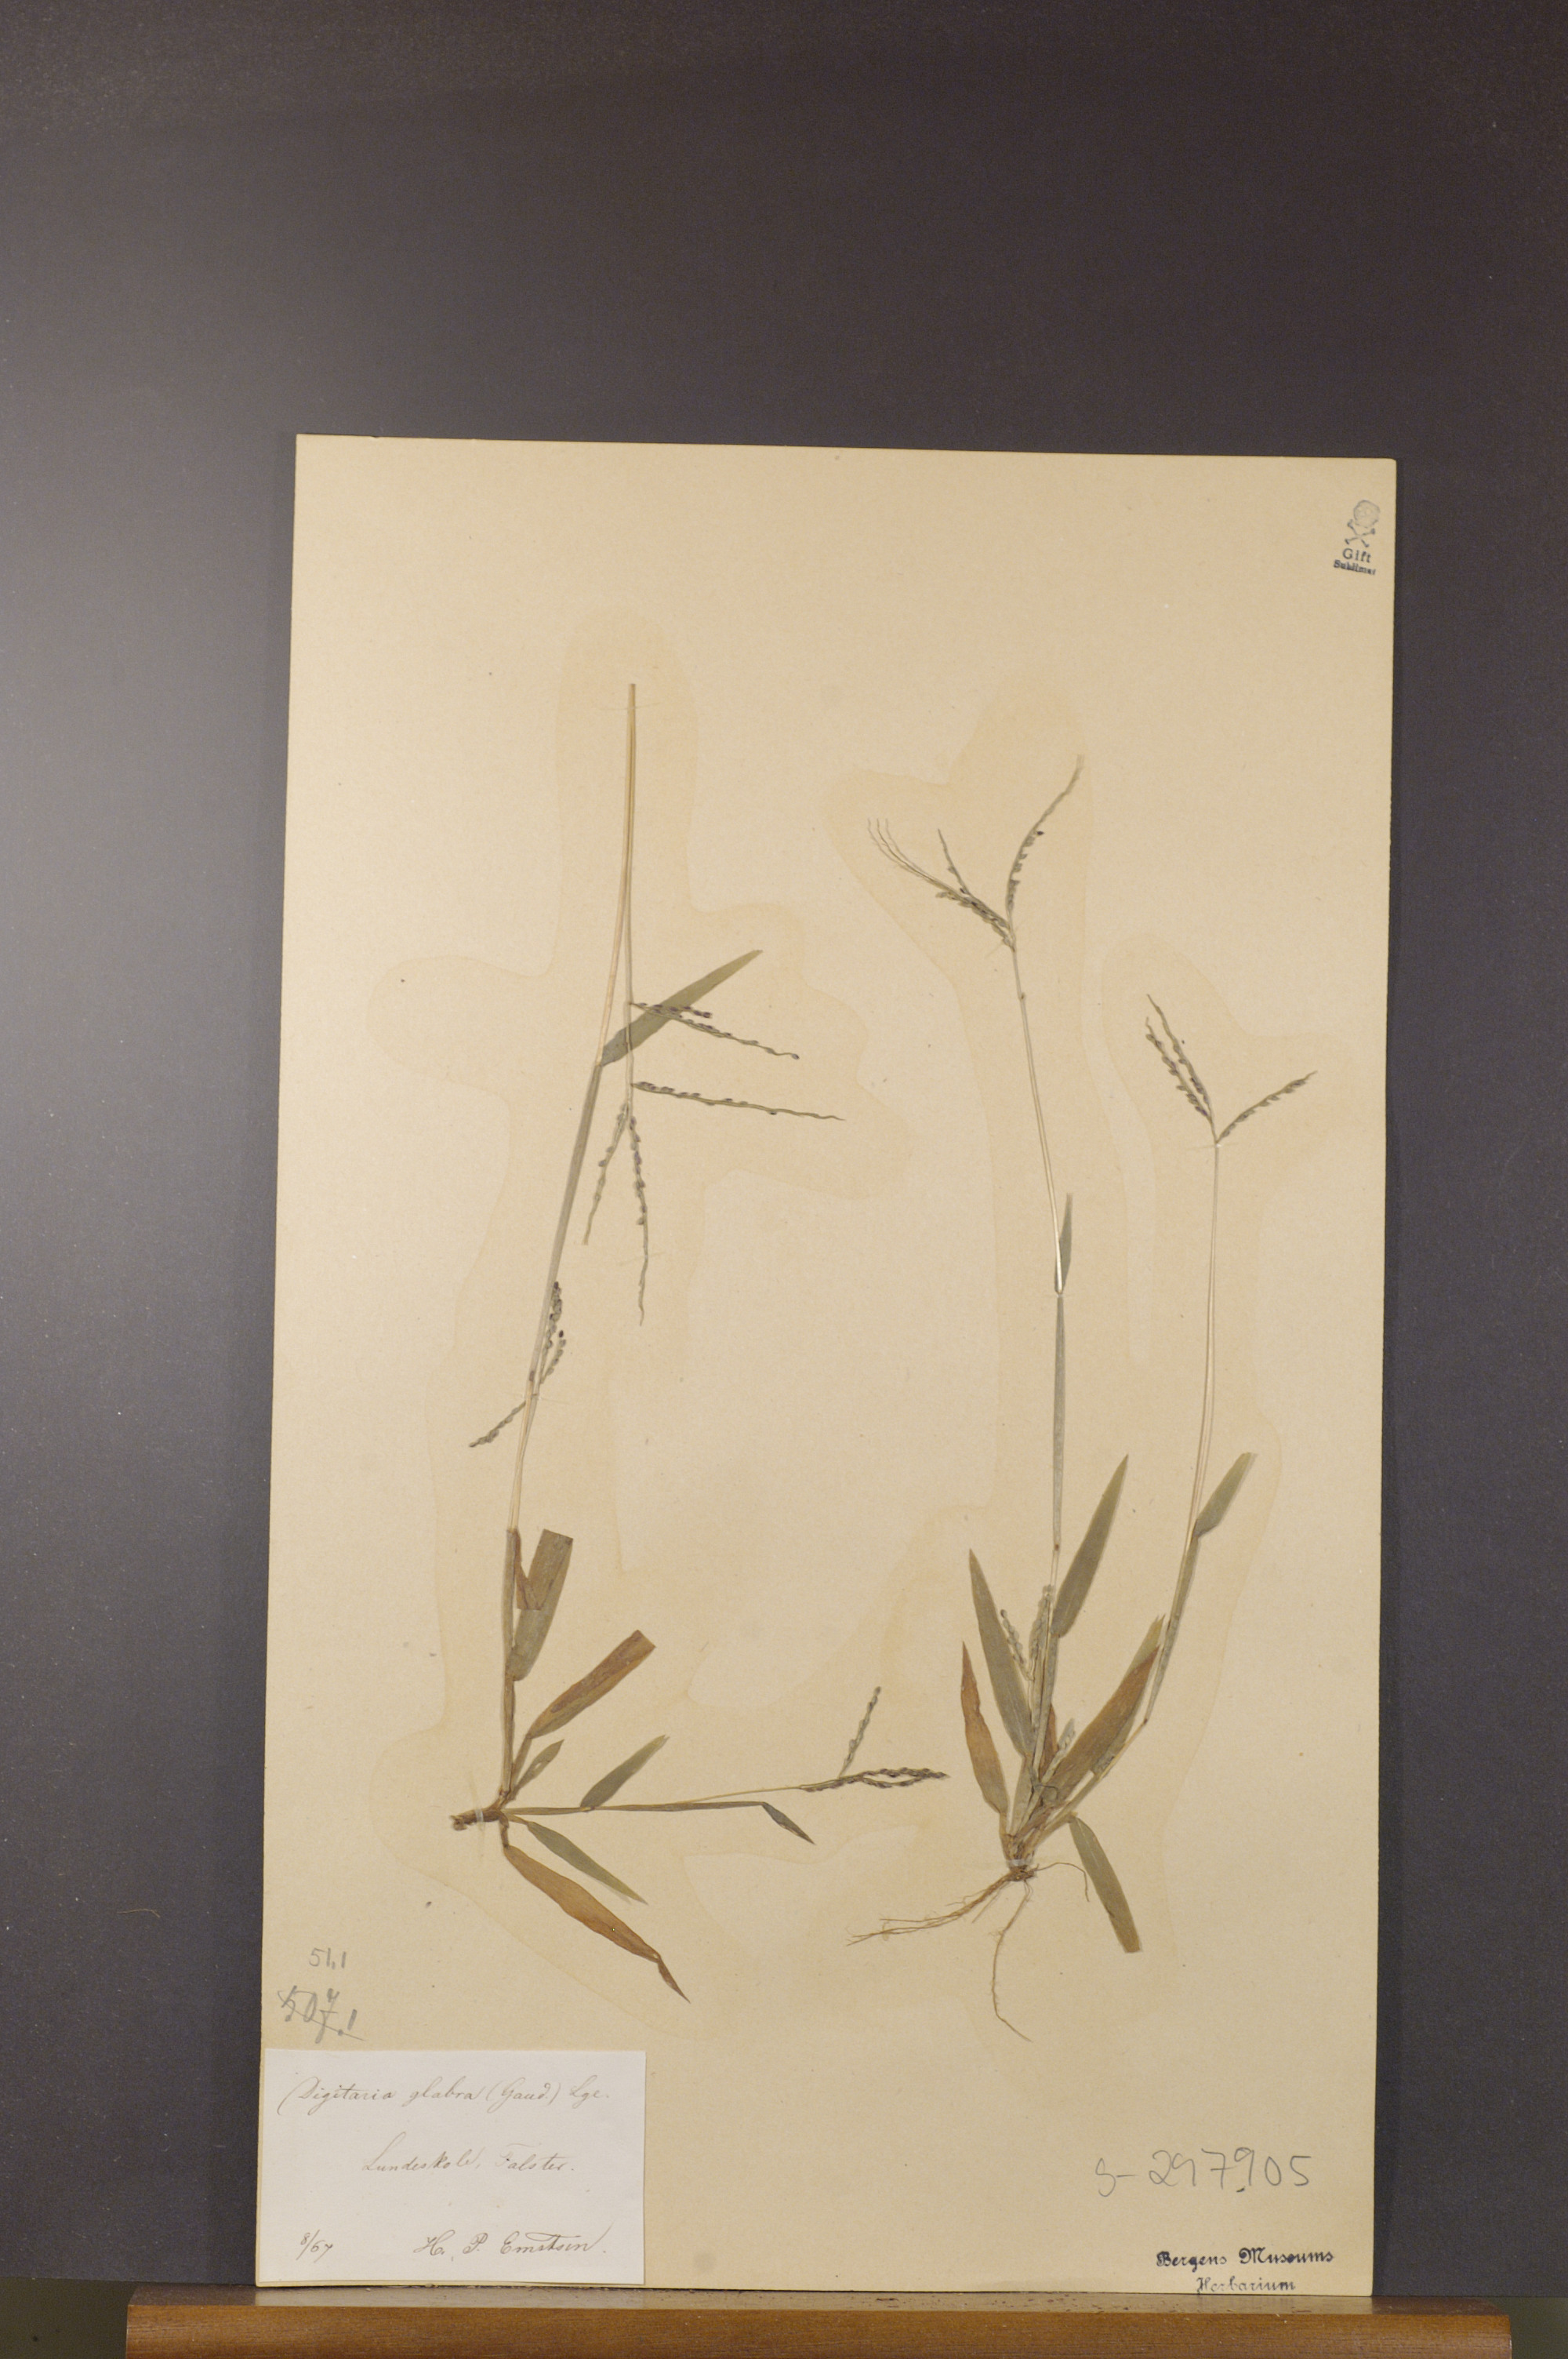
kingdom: Plantae
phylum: Tracheophyta
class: Liliopsida
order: Poales
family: Poaceae
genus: Digitaria
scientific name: Digitaria ischaemum
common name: Smooth crabgrass
